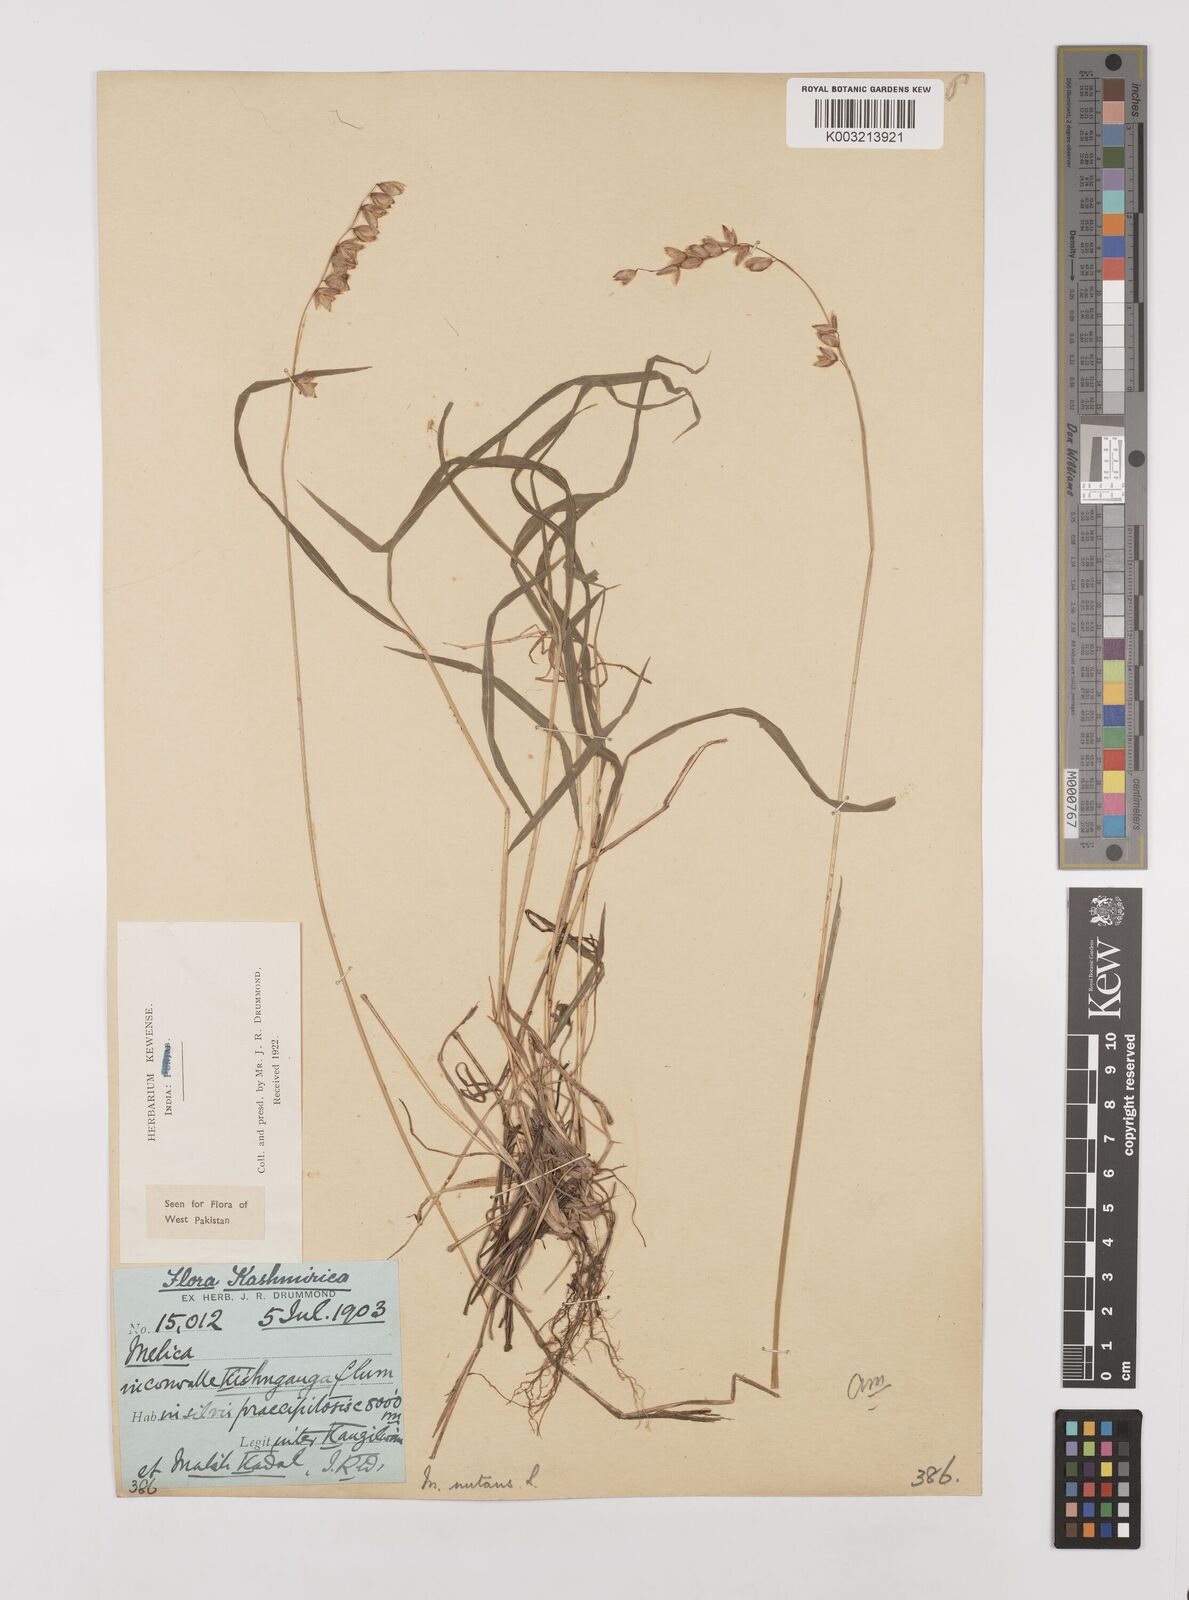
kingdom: Plantae
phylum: Tracheophyta
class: Liliopsida
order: Poales
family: Poaceae
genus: Melica
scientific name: Melica nutans
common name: Mountain melick
